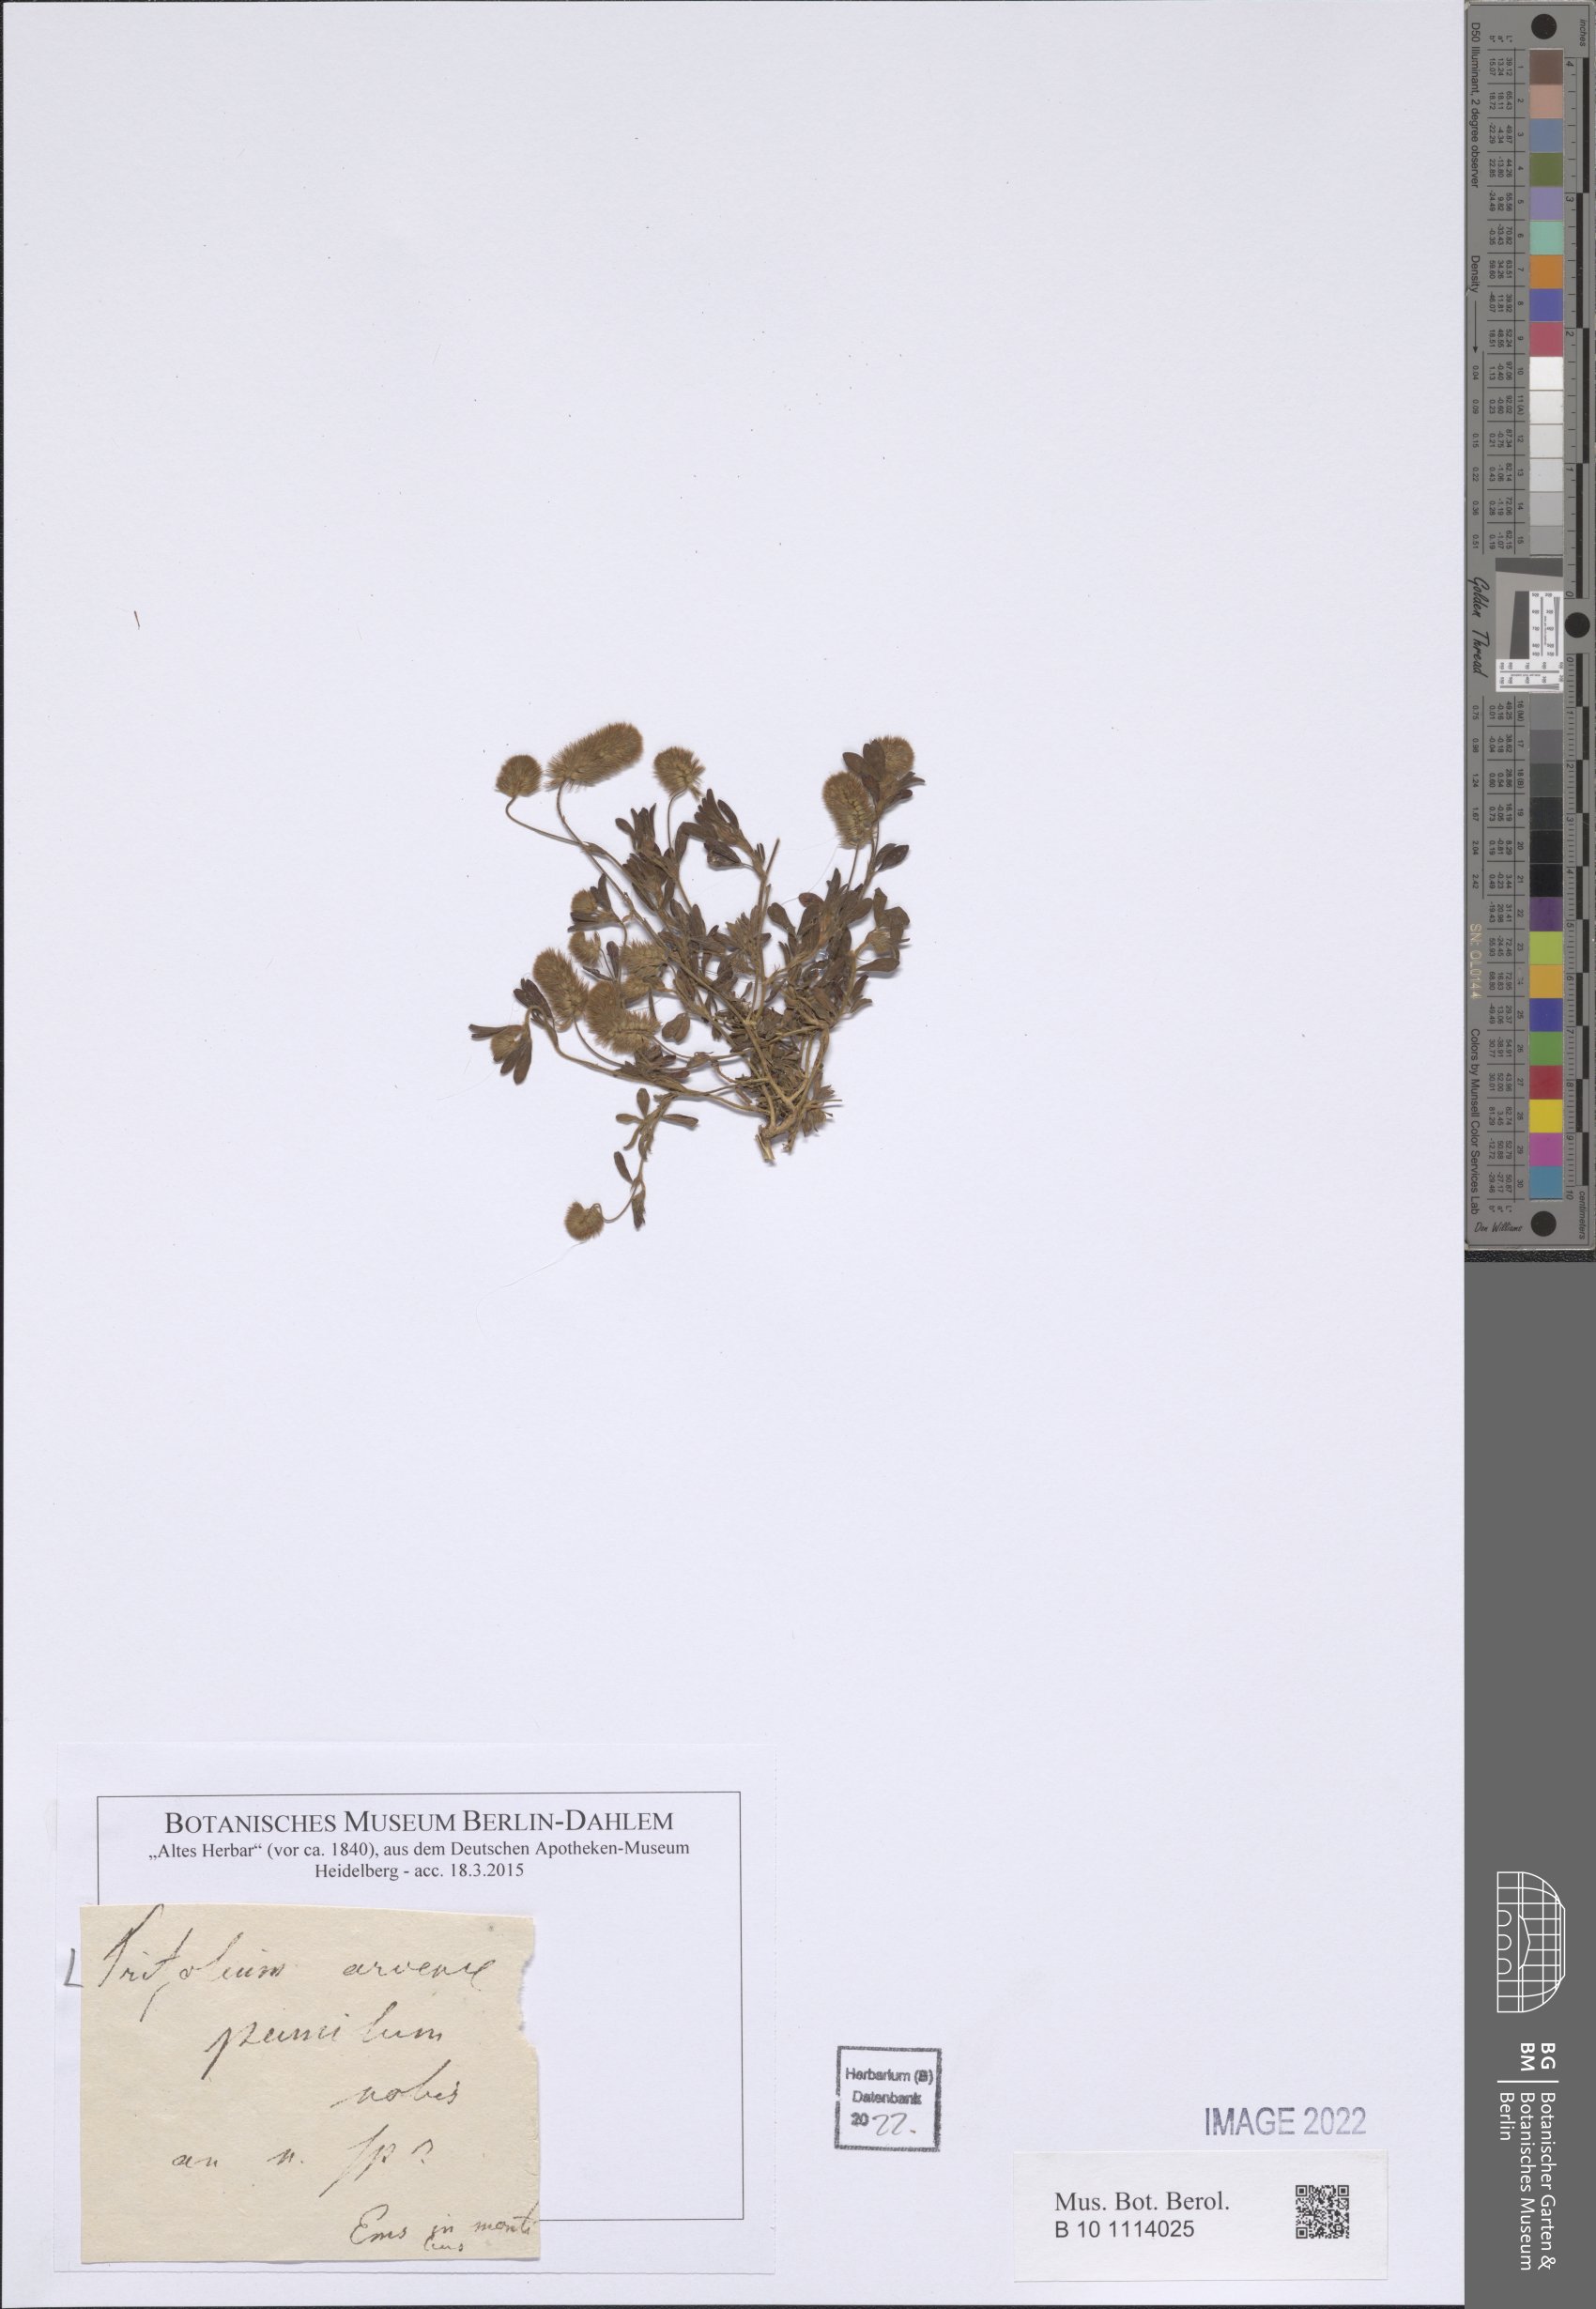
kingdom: Plantae
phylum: Tracheophyta
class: Magnoliopsida
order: Fabales
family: Fabaceae
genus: Trifolium
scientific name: Trifolium arvense
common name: Hare's-foot clover
